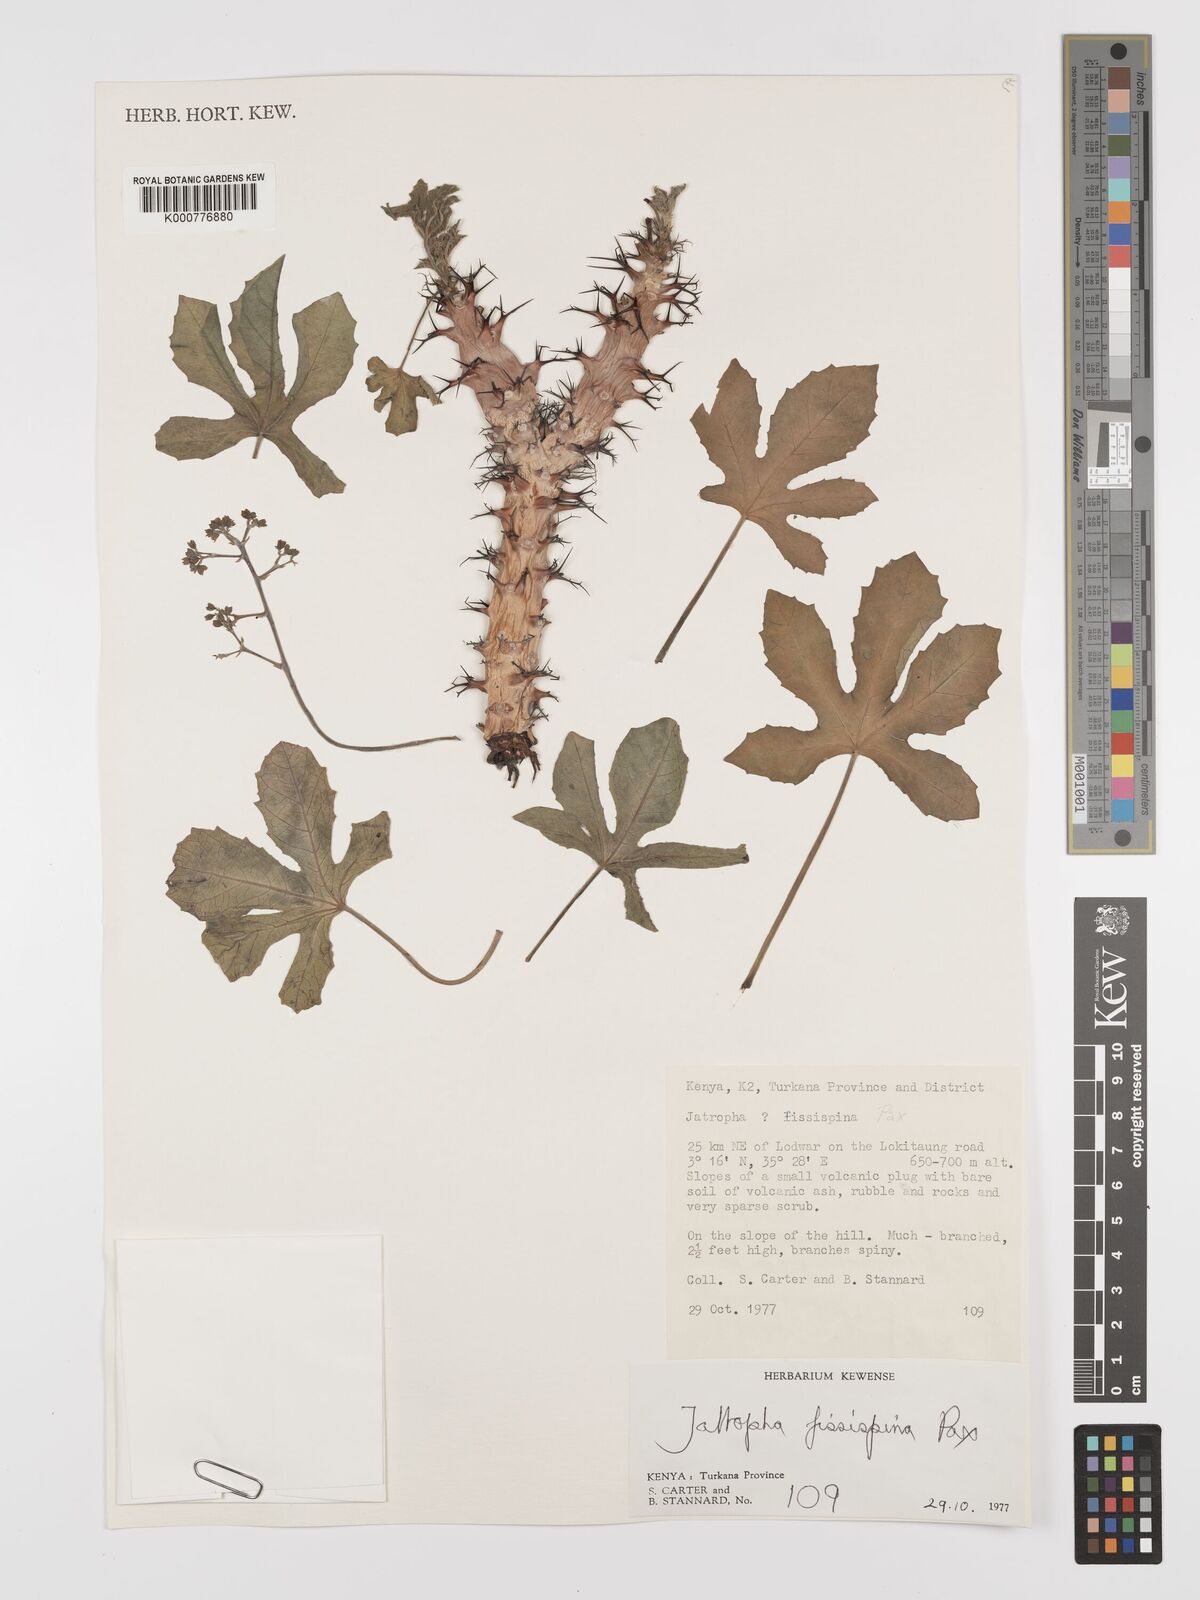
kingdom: Plantae
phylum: Tracheophyta
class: Magnoliopsida
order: Malpighiales
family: Euphorbiaceae
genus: Jatropha
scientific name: Jatropha ellenbeckii
